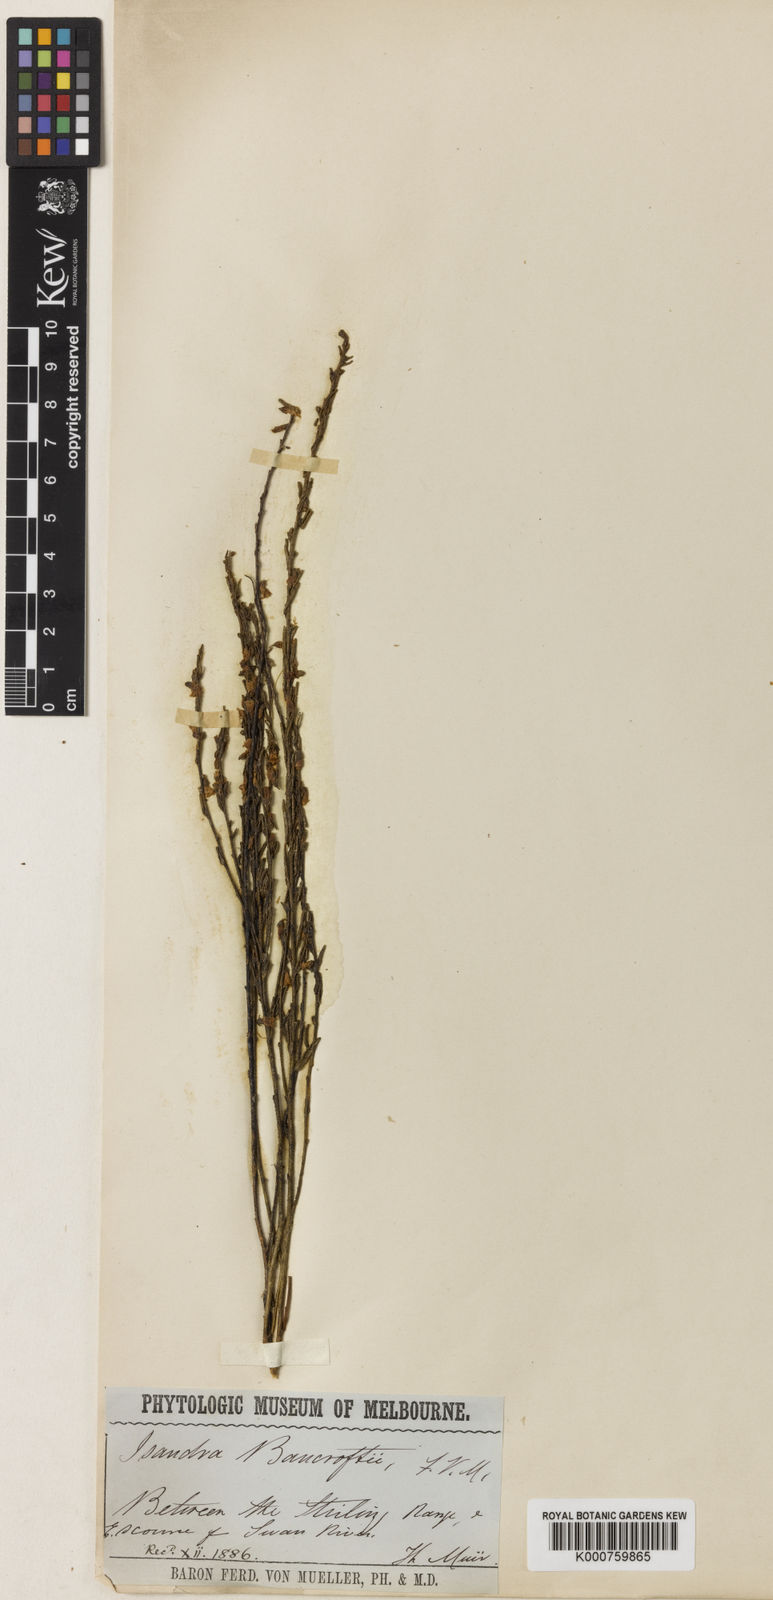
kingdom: Plantae
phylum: Tracheophyta
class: Magnoliopsida
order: Solanales
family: Solanaceae
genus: Symonanthus
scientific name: Symonanthus bancroftii
